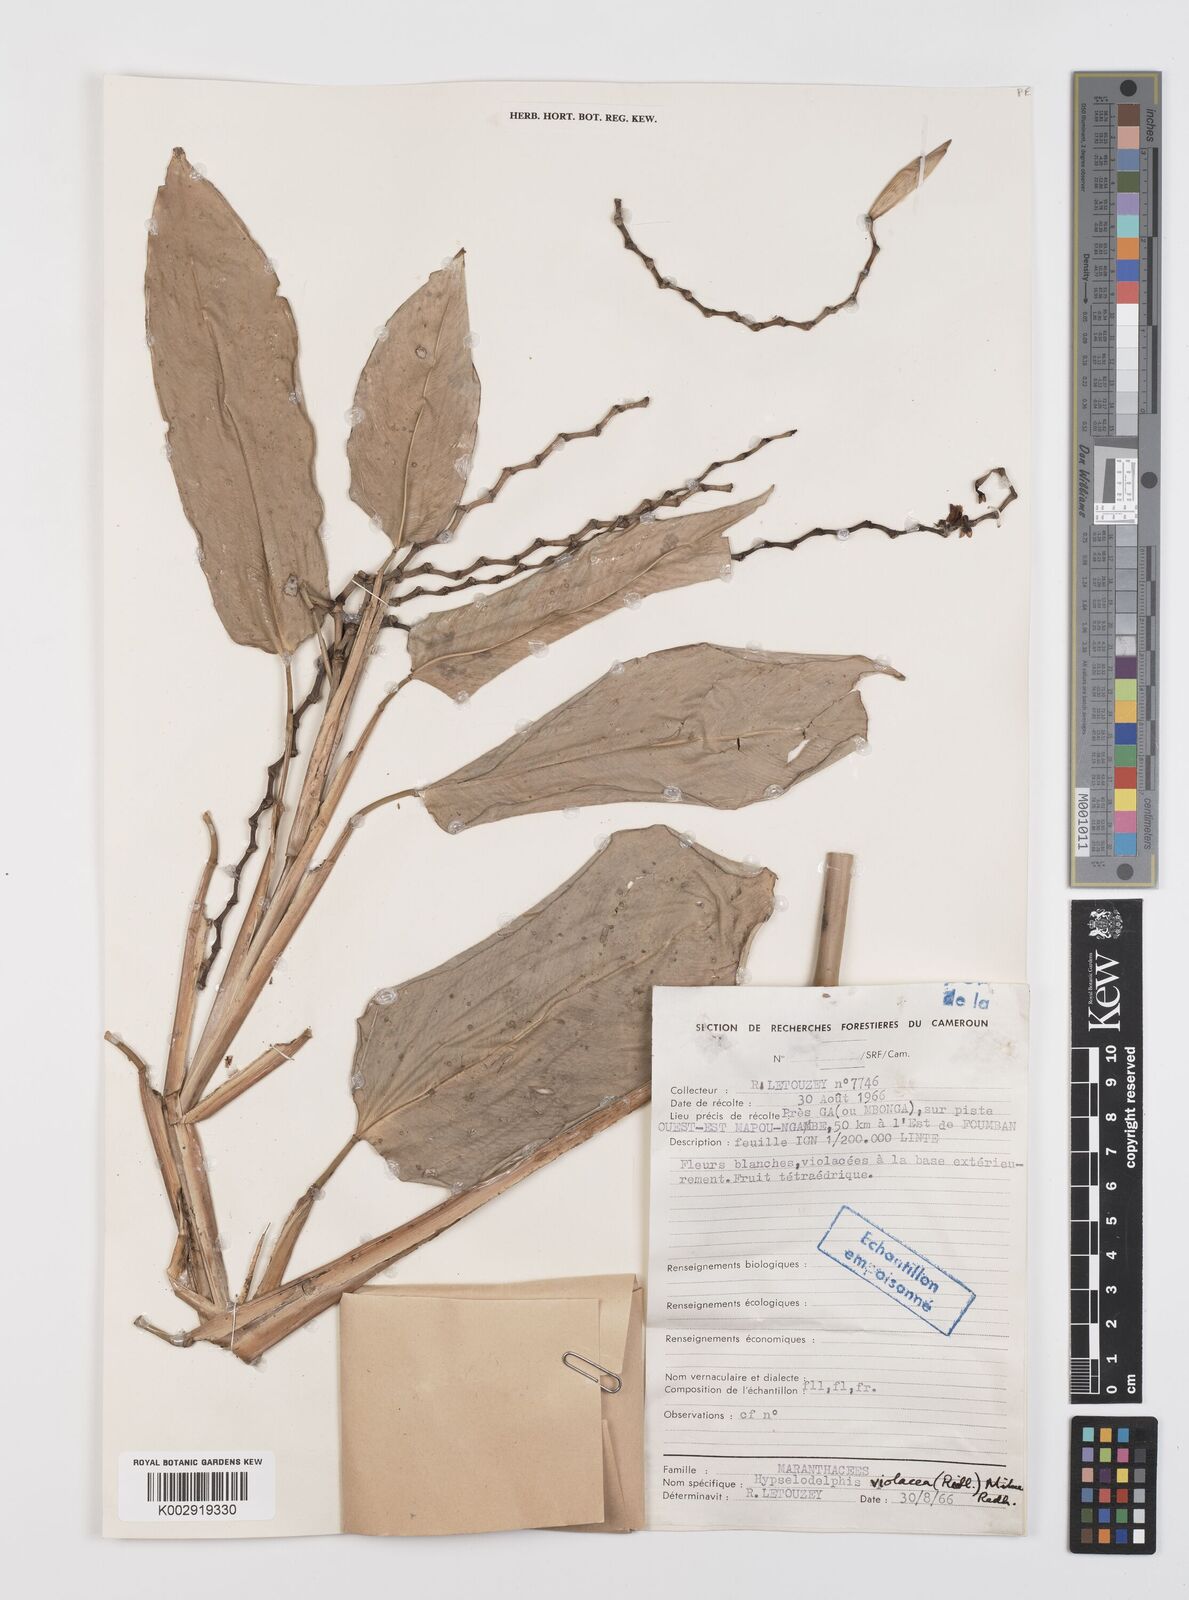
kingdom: Plantae
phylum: Tracheophyta
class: Liliopsida
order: Zingiberales
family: Marantaceae
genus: Hypselodelphys
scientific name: Hypselodelphys violacea
